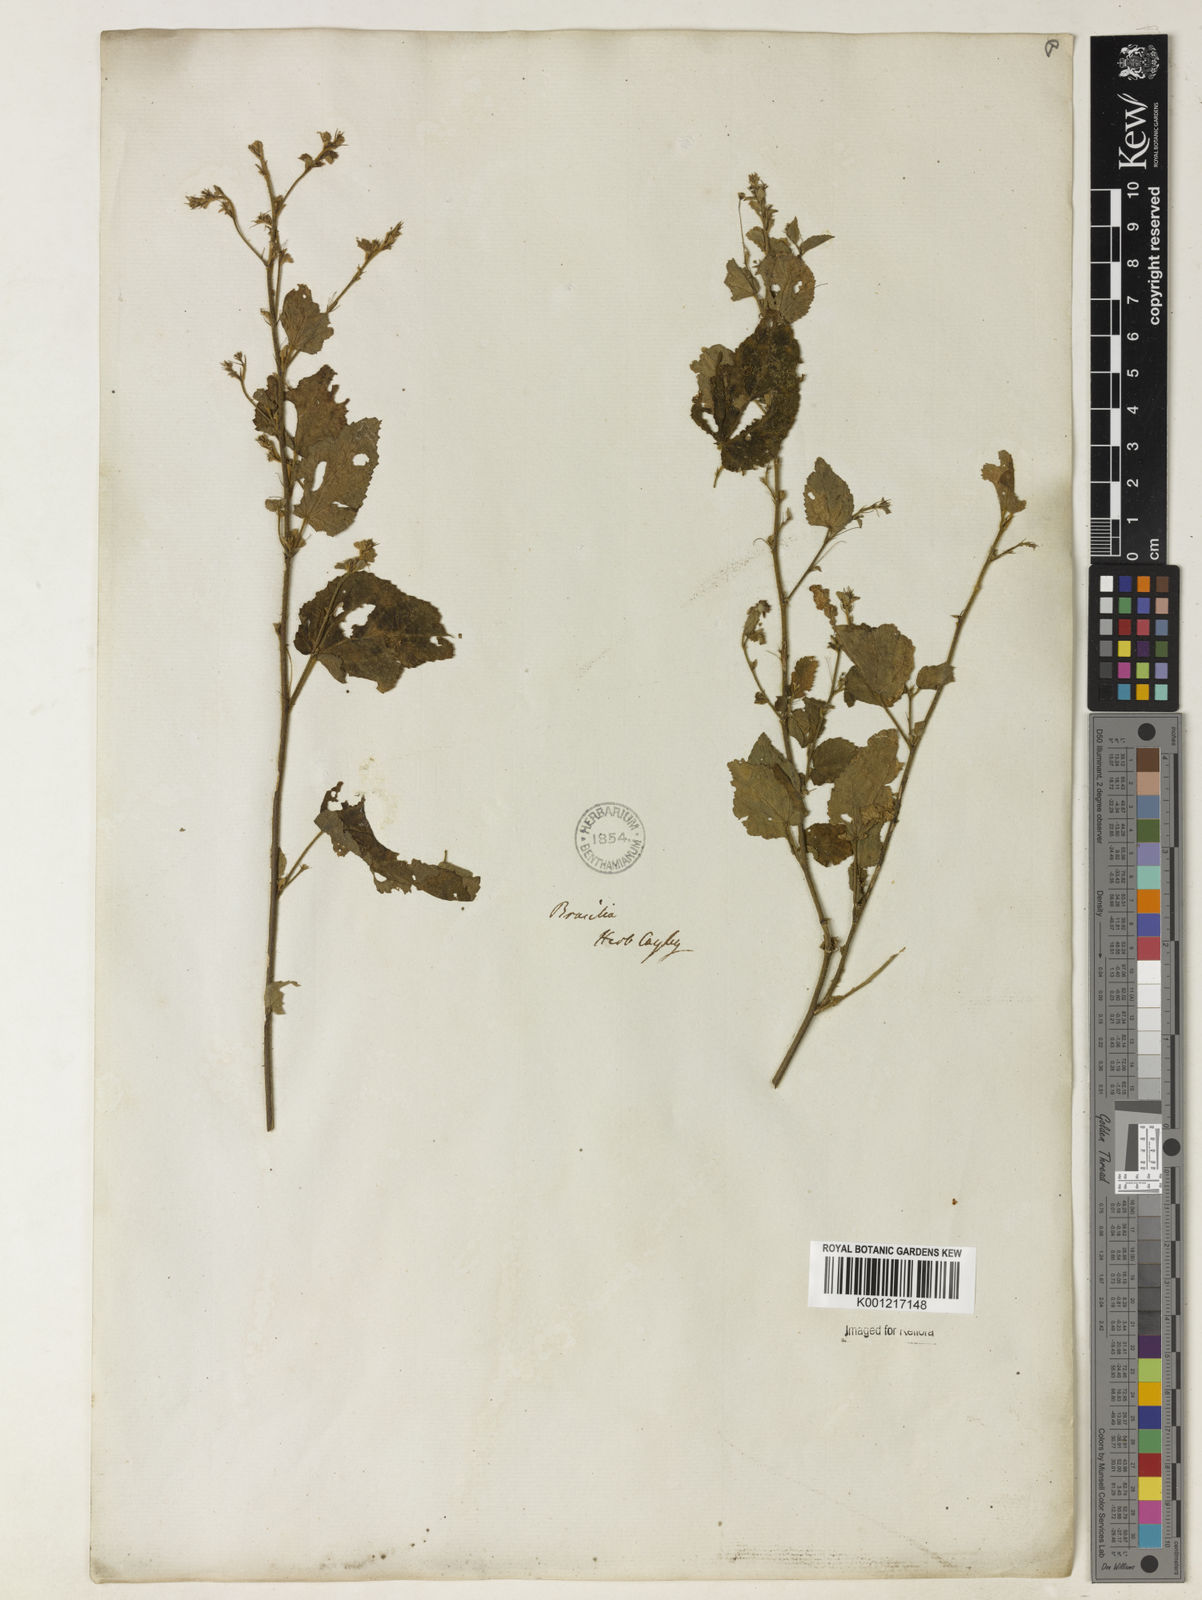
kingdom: Plantae
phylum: Tracheophyta
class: Magnoliopsida
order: Malvales
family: Malvaceae
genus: Sida
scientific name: Sida
